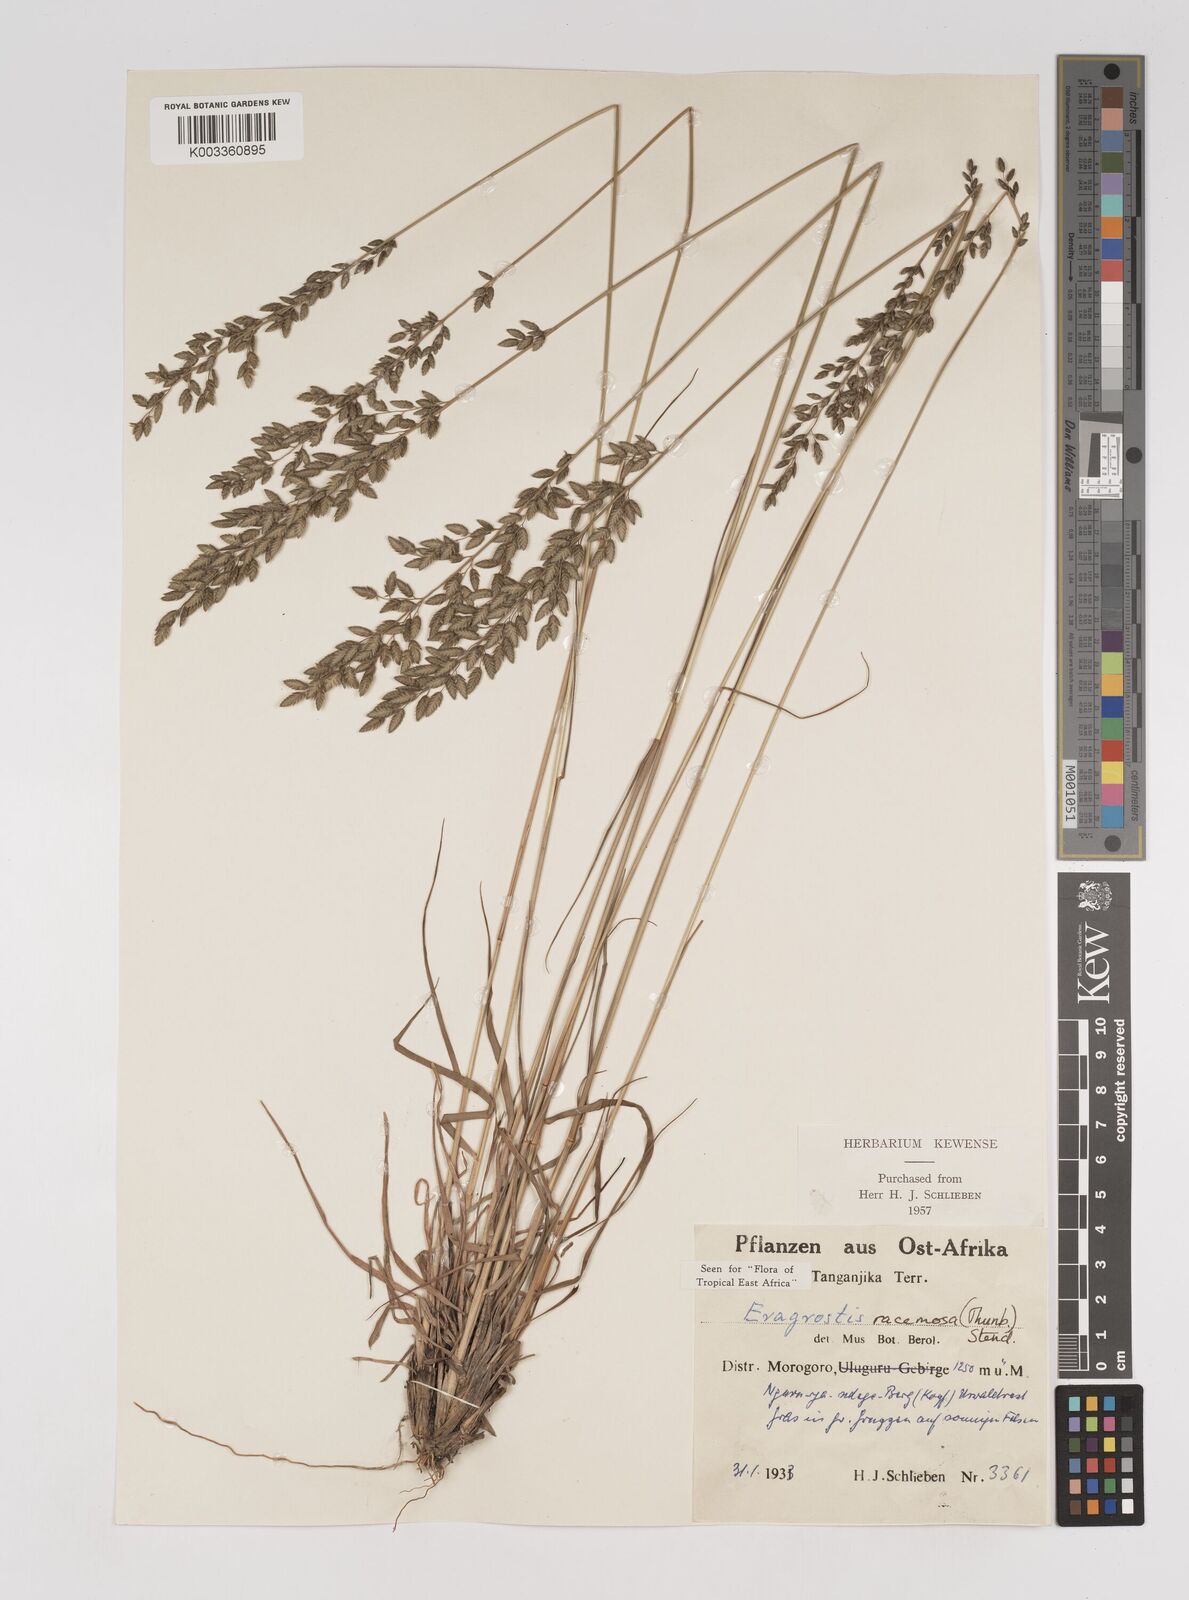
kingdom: Plantae
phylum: Tracheophyta
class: Liliopsida
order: Poales
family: Poaceae
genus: Eragrostis
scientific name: Eragrostis racemosa
